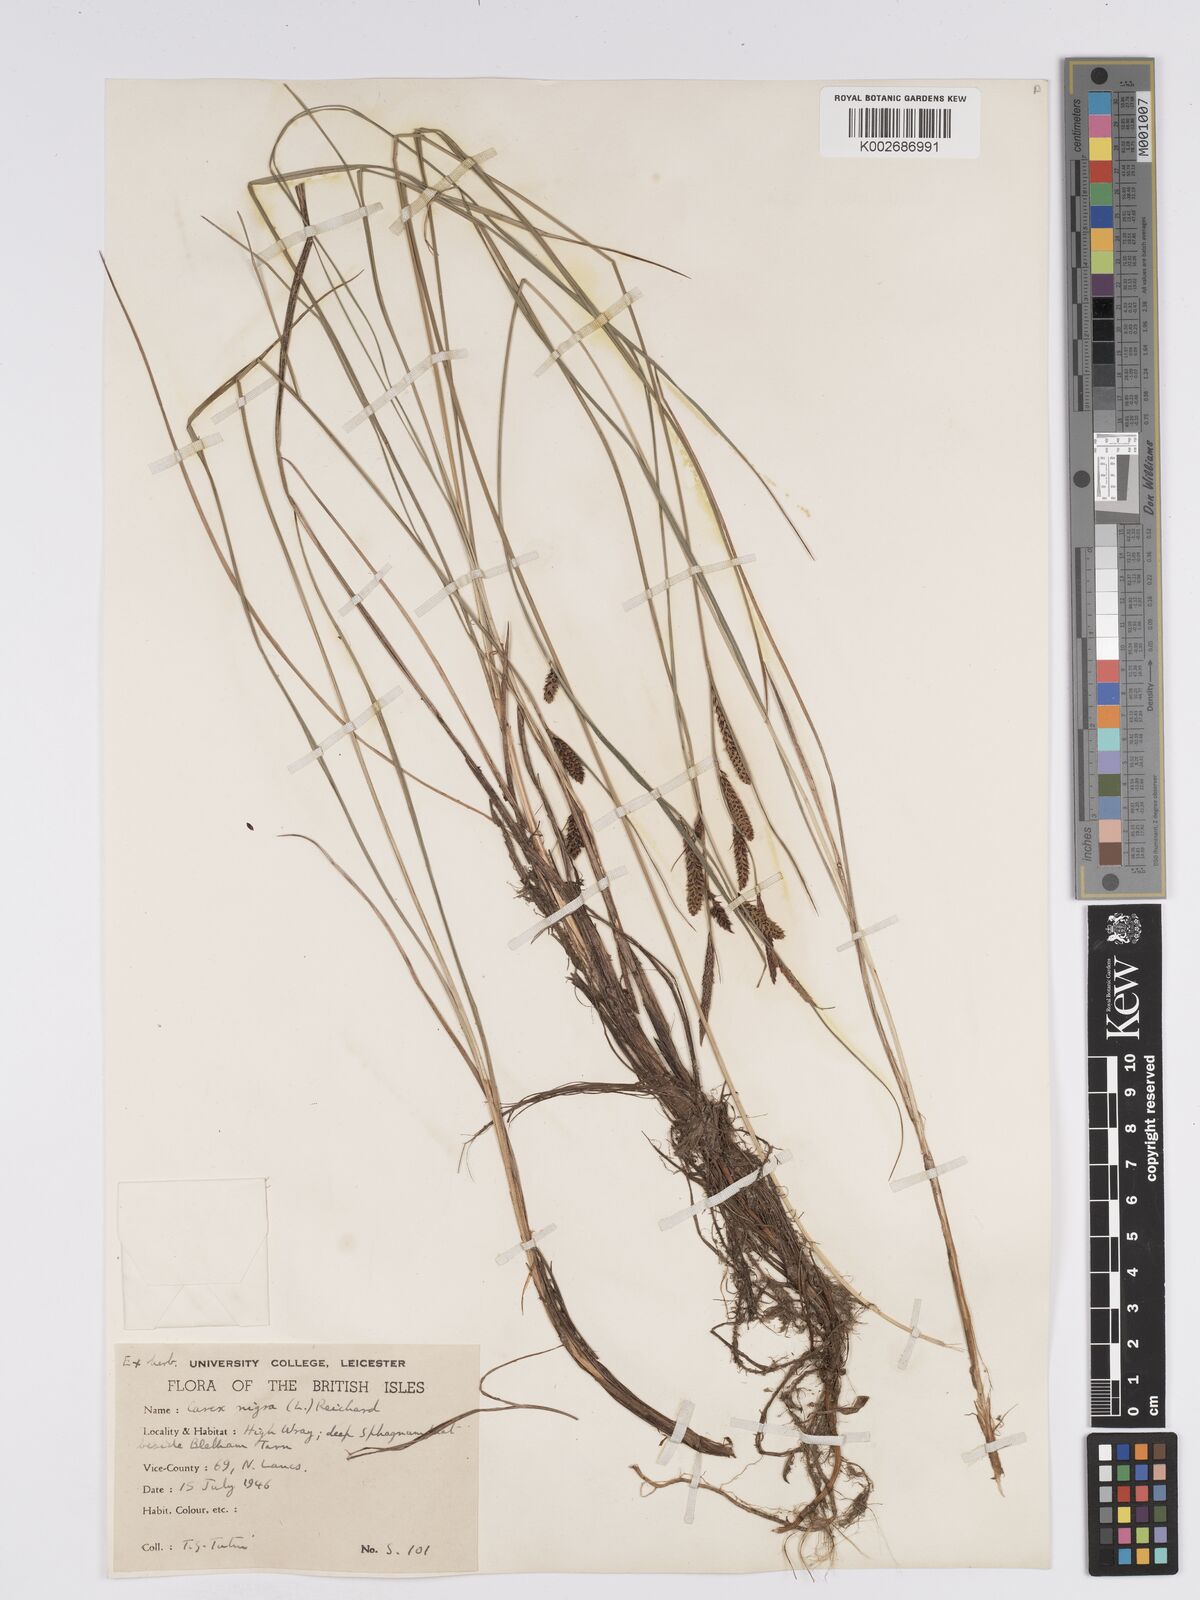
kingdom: Plantae
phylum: Tracheophyta
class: Liliopsida
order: Poales
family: Cyperaceae
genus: Carex
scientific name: Carex nigra
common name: Common sedge
